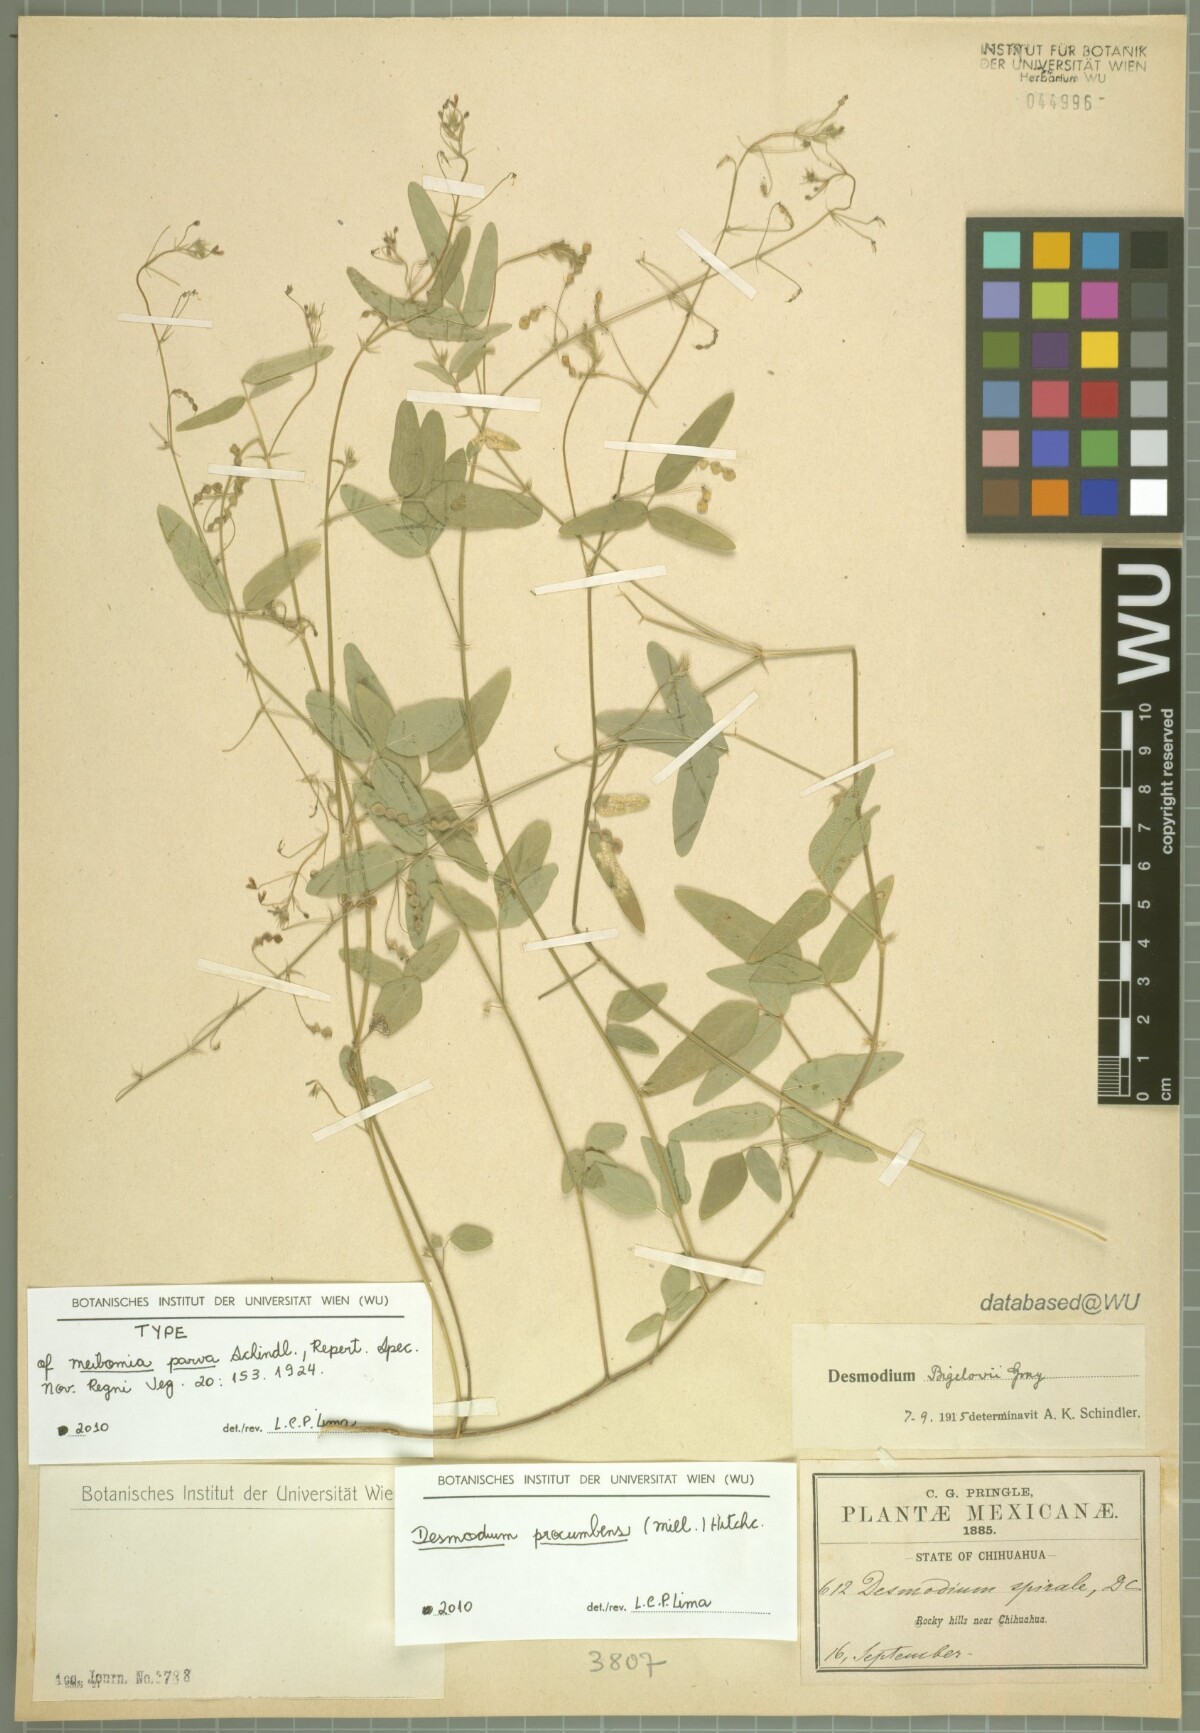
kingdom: Plantae
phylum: Tracheophyta
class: Magnoliopsida
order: Fabales
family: Fabaceae
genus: Desmodium
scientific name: Desmodium procumbens
